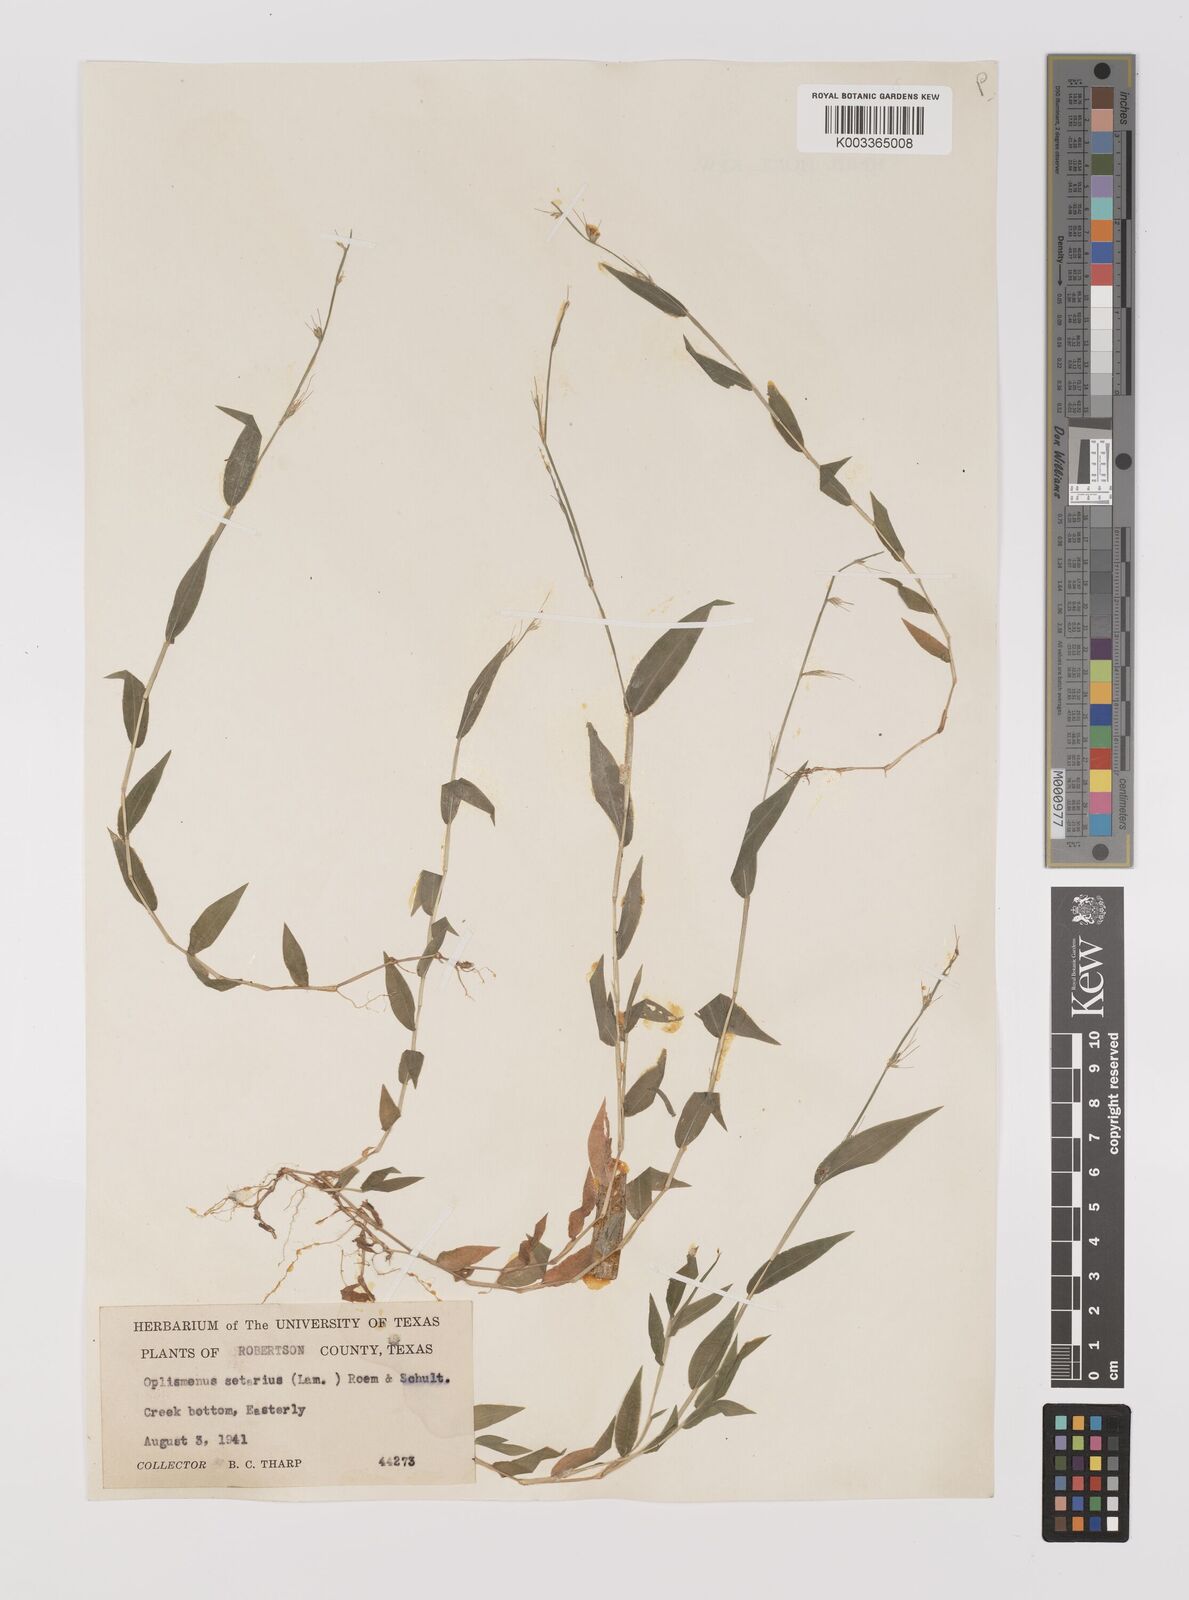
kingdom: Plantae
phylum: Tracheophyta
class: Liliopsida
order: Poales
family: Poaceae
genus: Oplismenus
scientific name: Oplismenus undulatifolius
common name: Wavyleaf basketgrass
